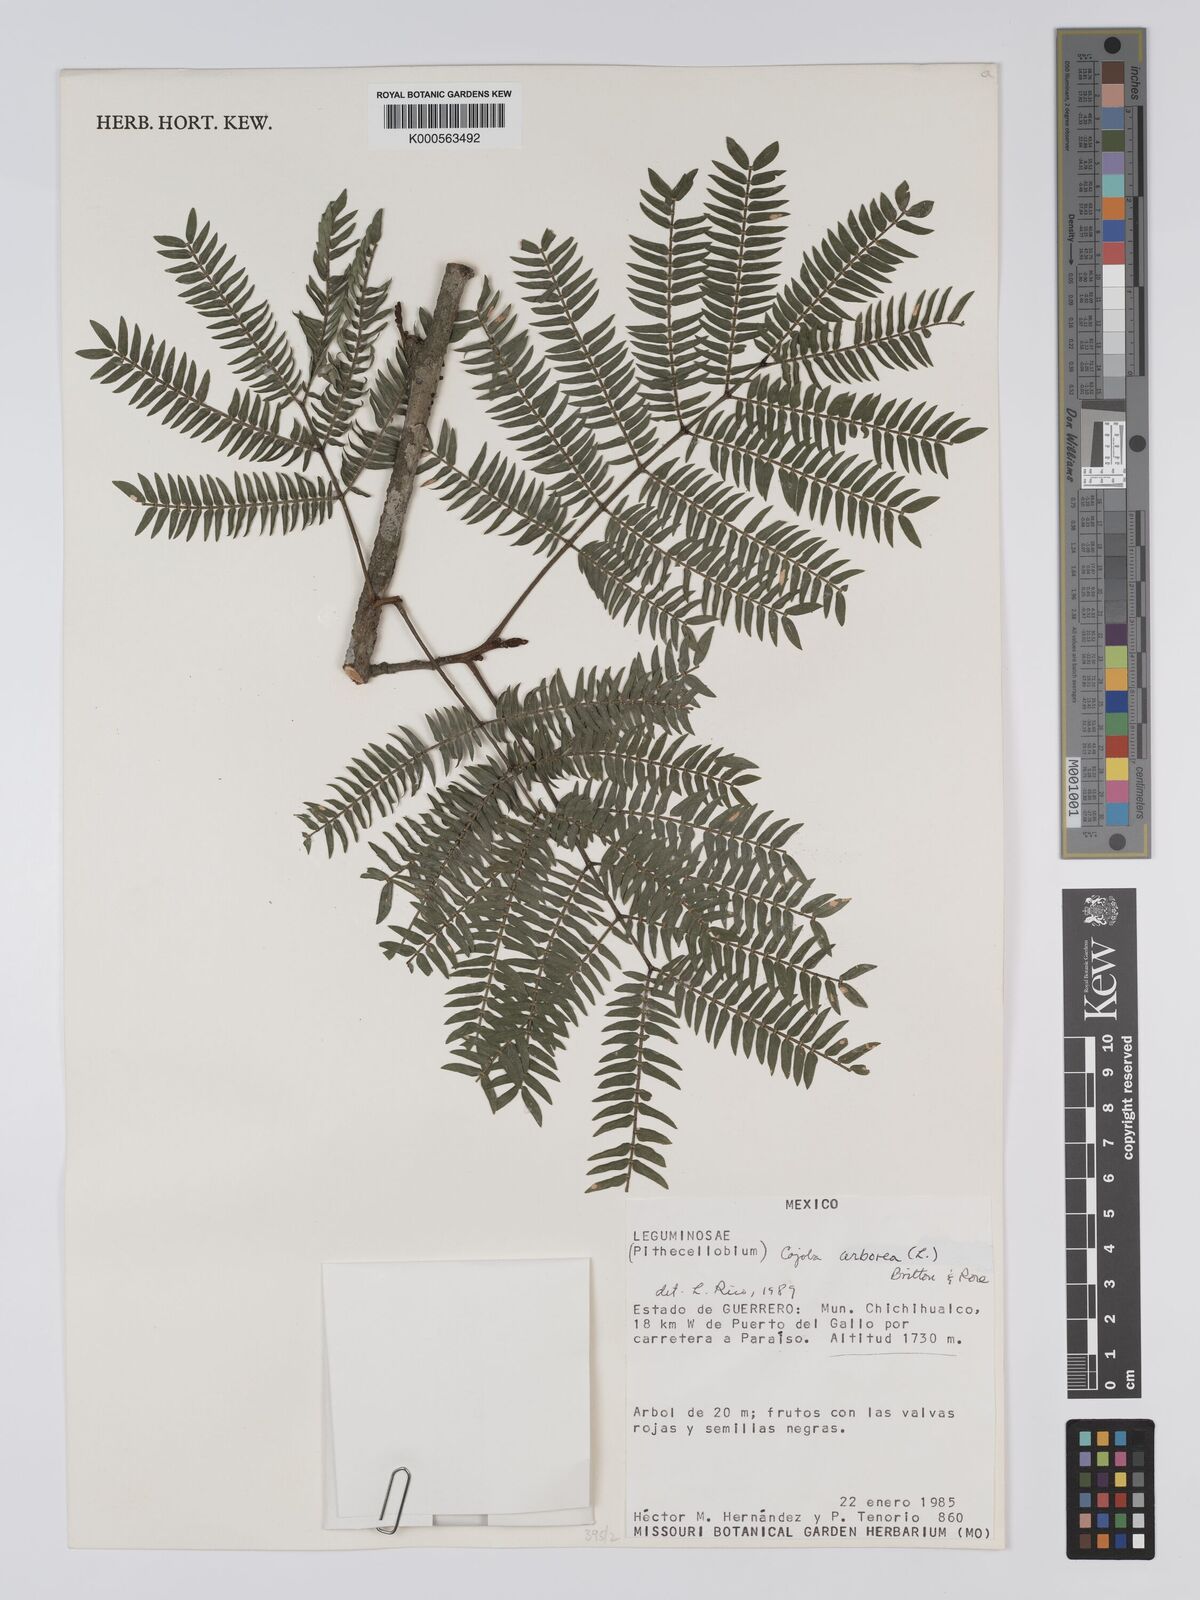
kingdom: Plantae
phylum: Tracheophyta
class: Magnoliopsida
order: Fabales
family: Fabaceae
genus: Cojoba
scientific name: Cojoba arborea
